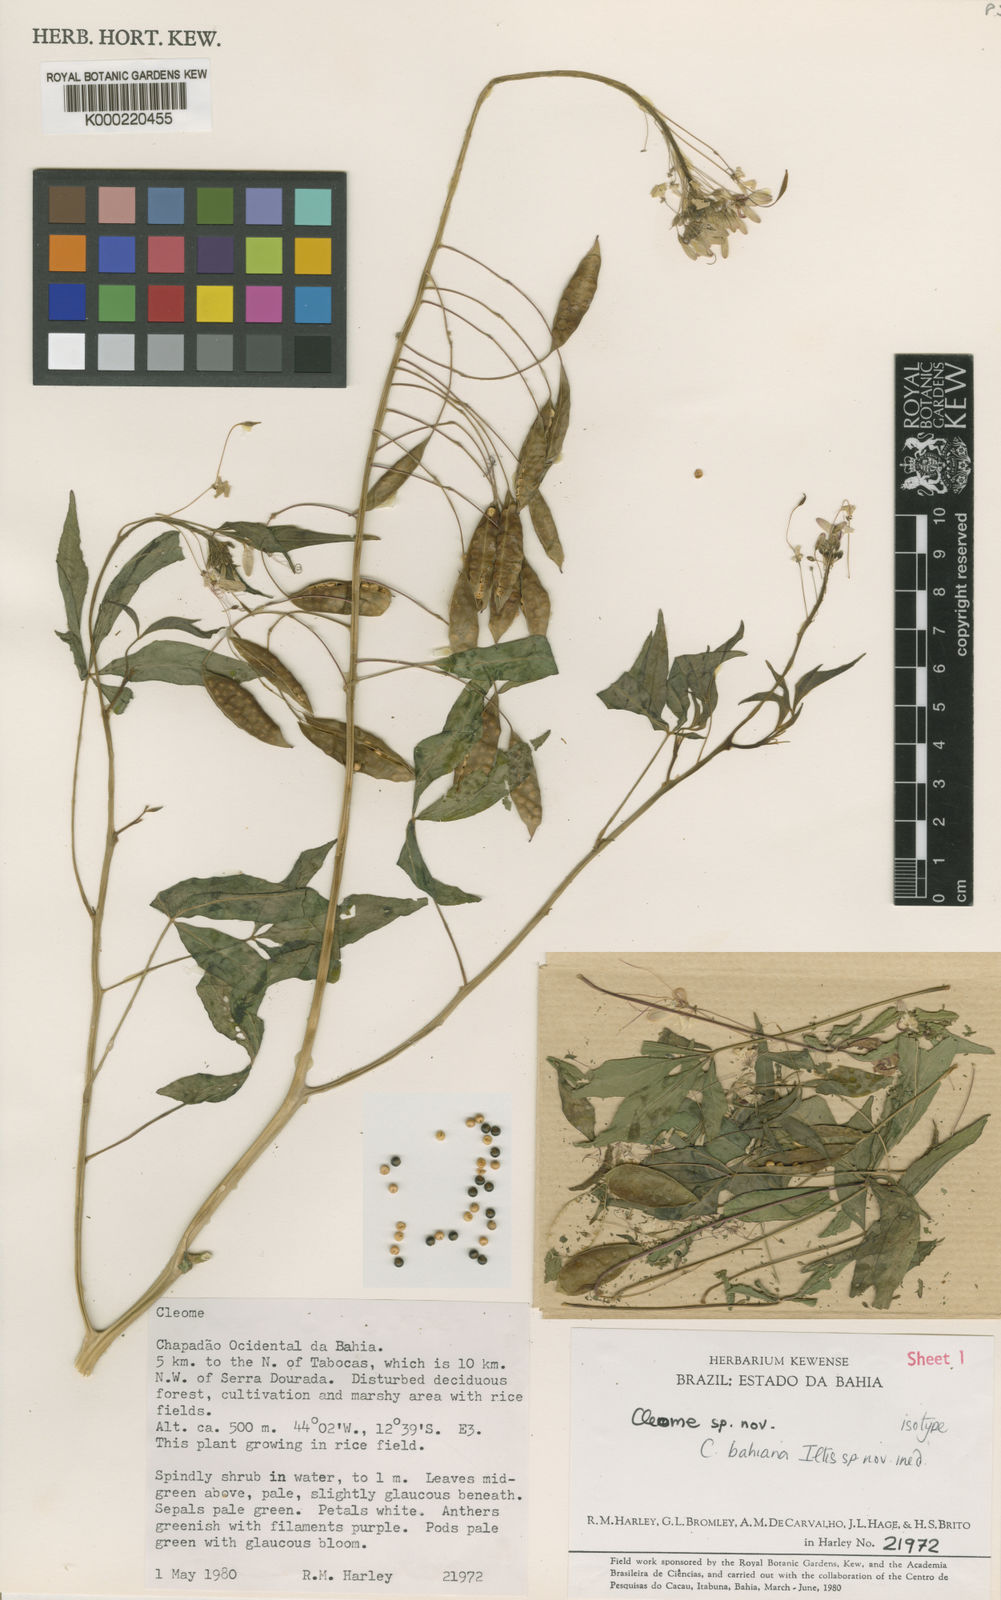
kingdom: Plantae
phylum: Tracheophyta
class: Magnoliopsida
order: Brassicales
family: Cleomaceae
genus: Cleome
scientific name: Cleome
